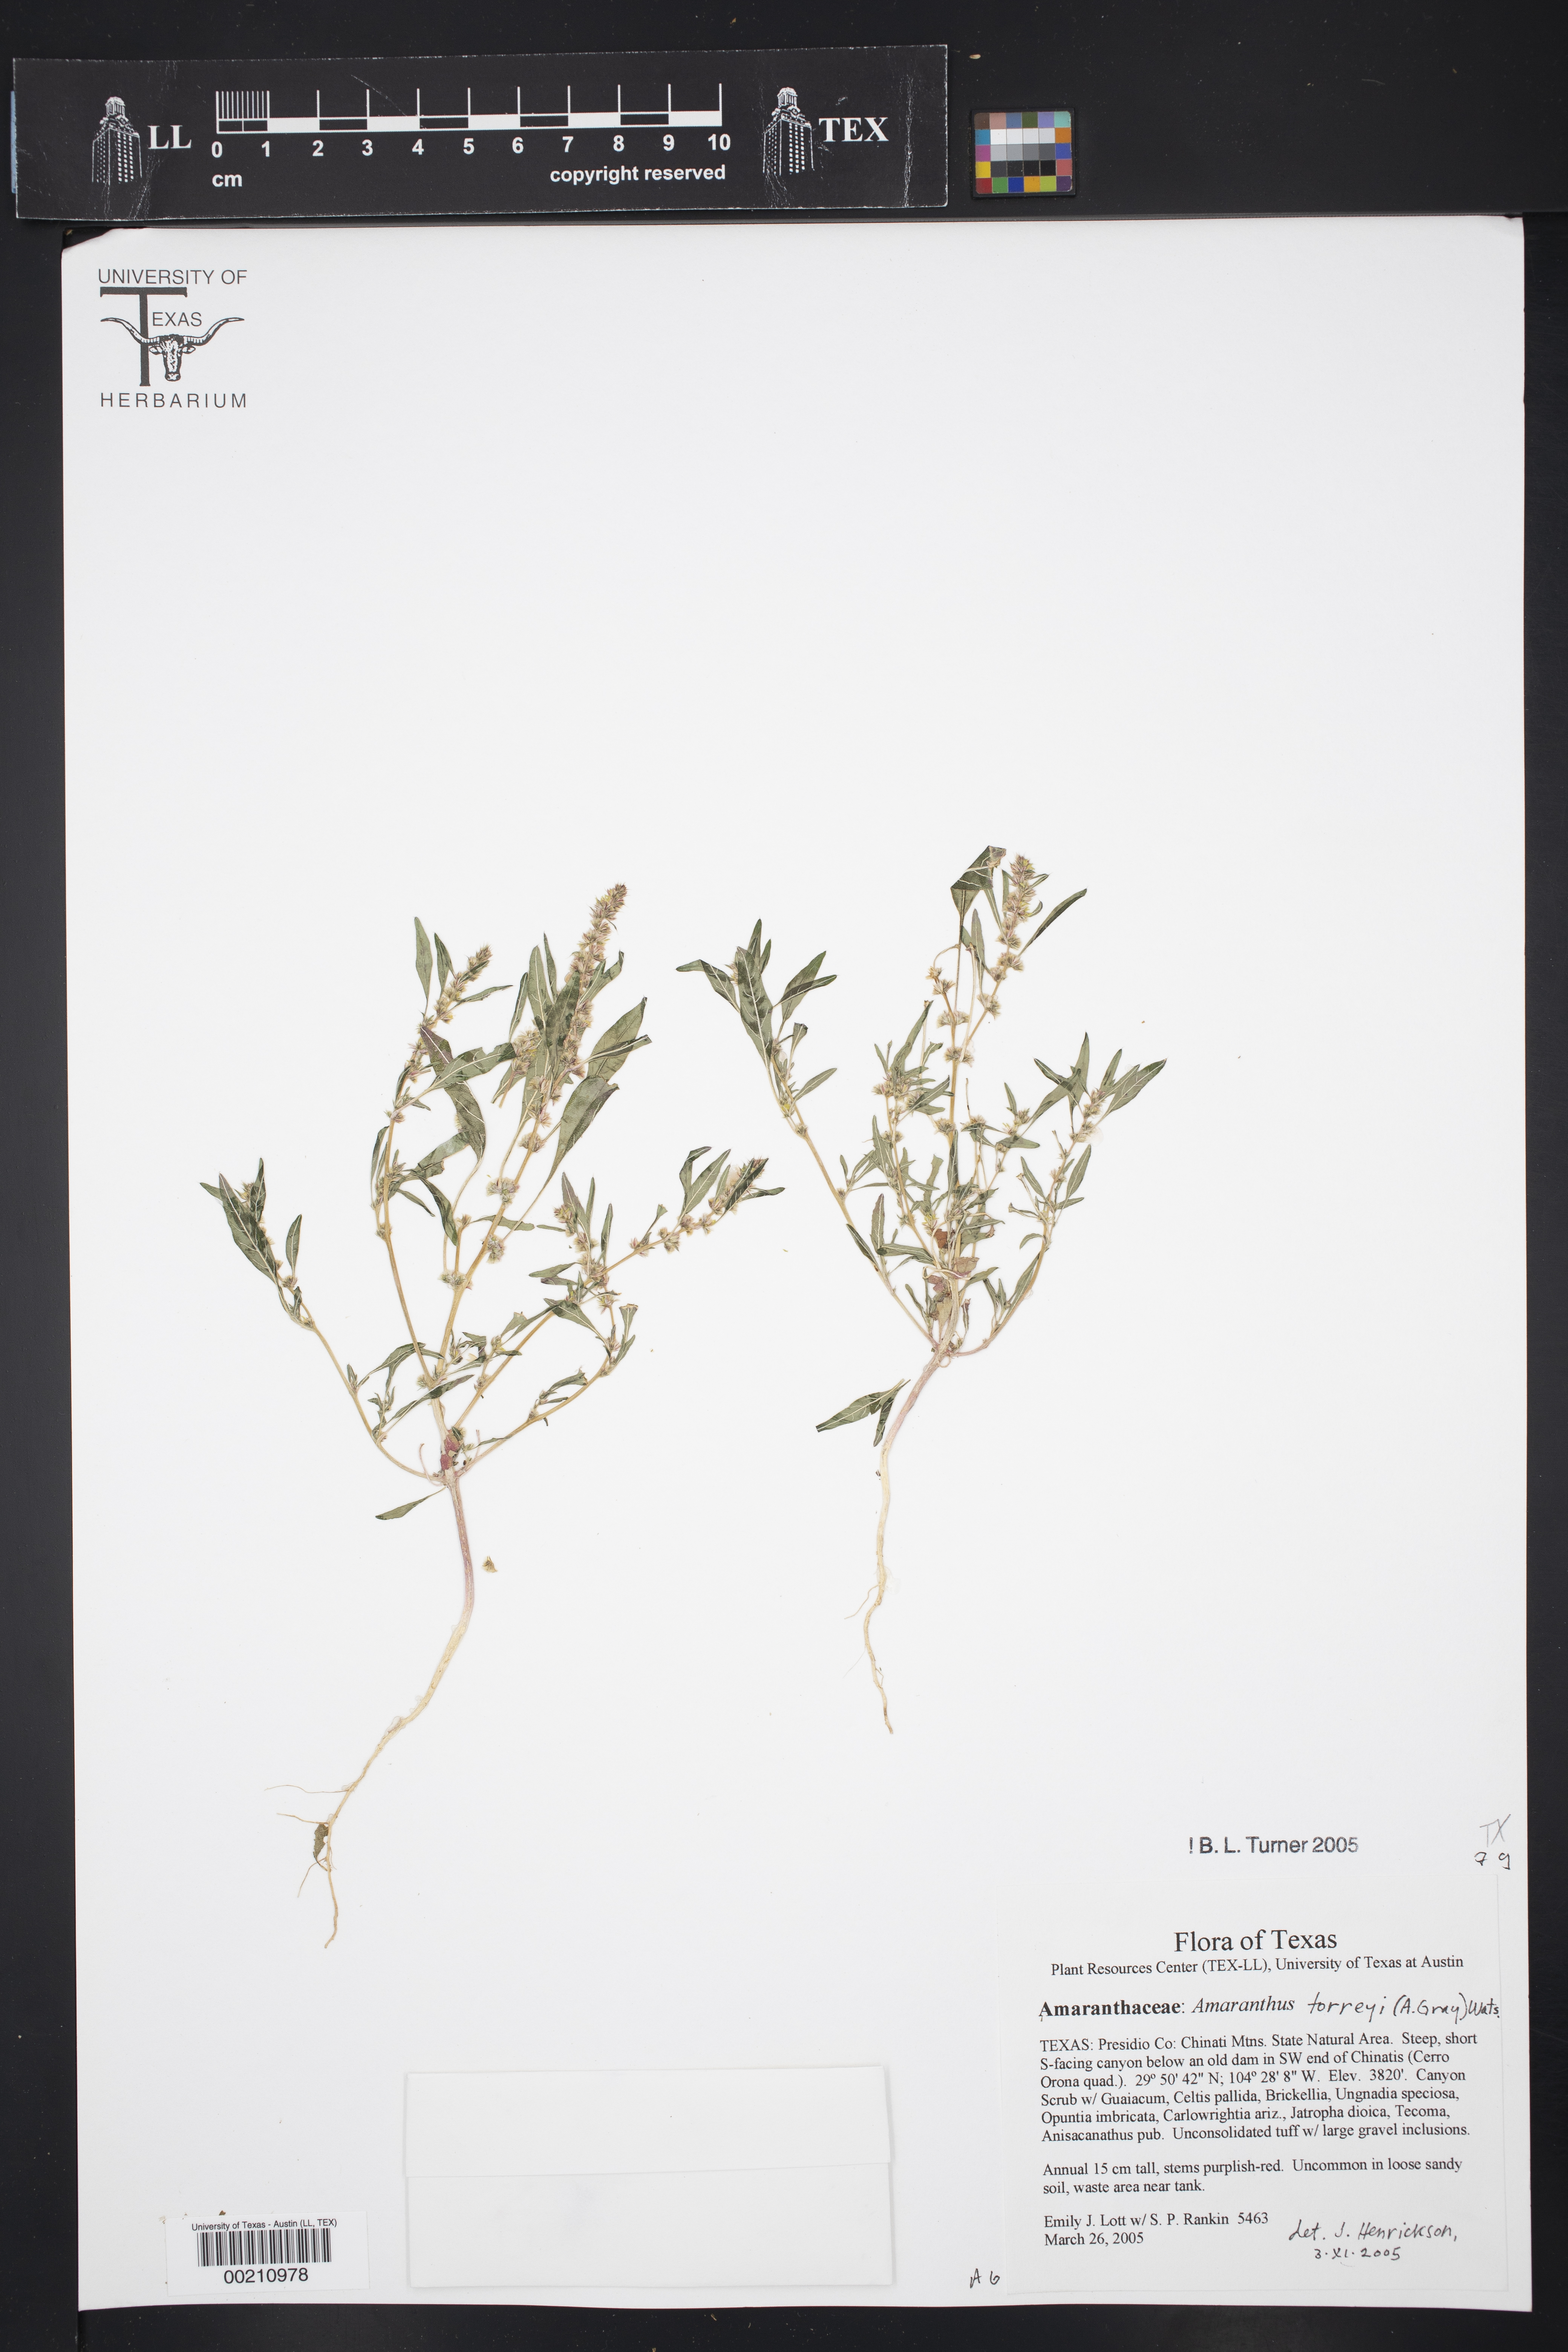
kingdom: Plantae
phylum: Tracheophyta
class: Magnoliopsida
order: Caryophyllales
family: Amaranthaceae
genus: Amaranthus
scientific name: Amaranthus torreyi
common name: Bigelow's amaranth
